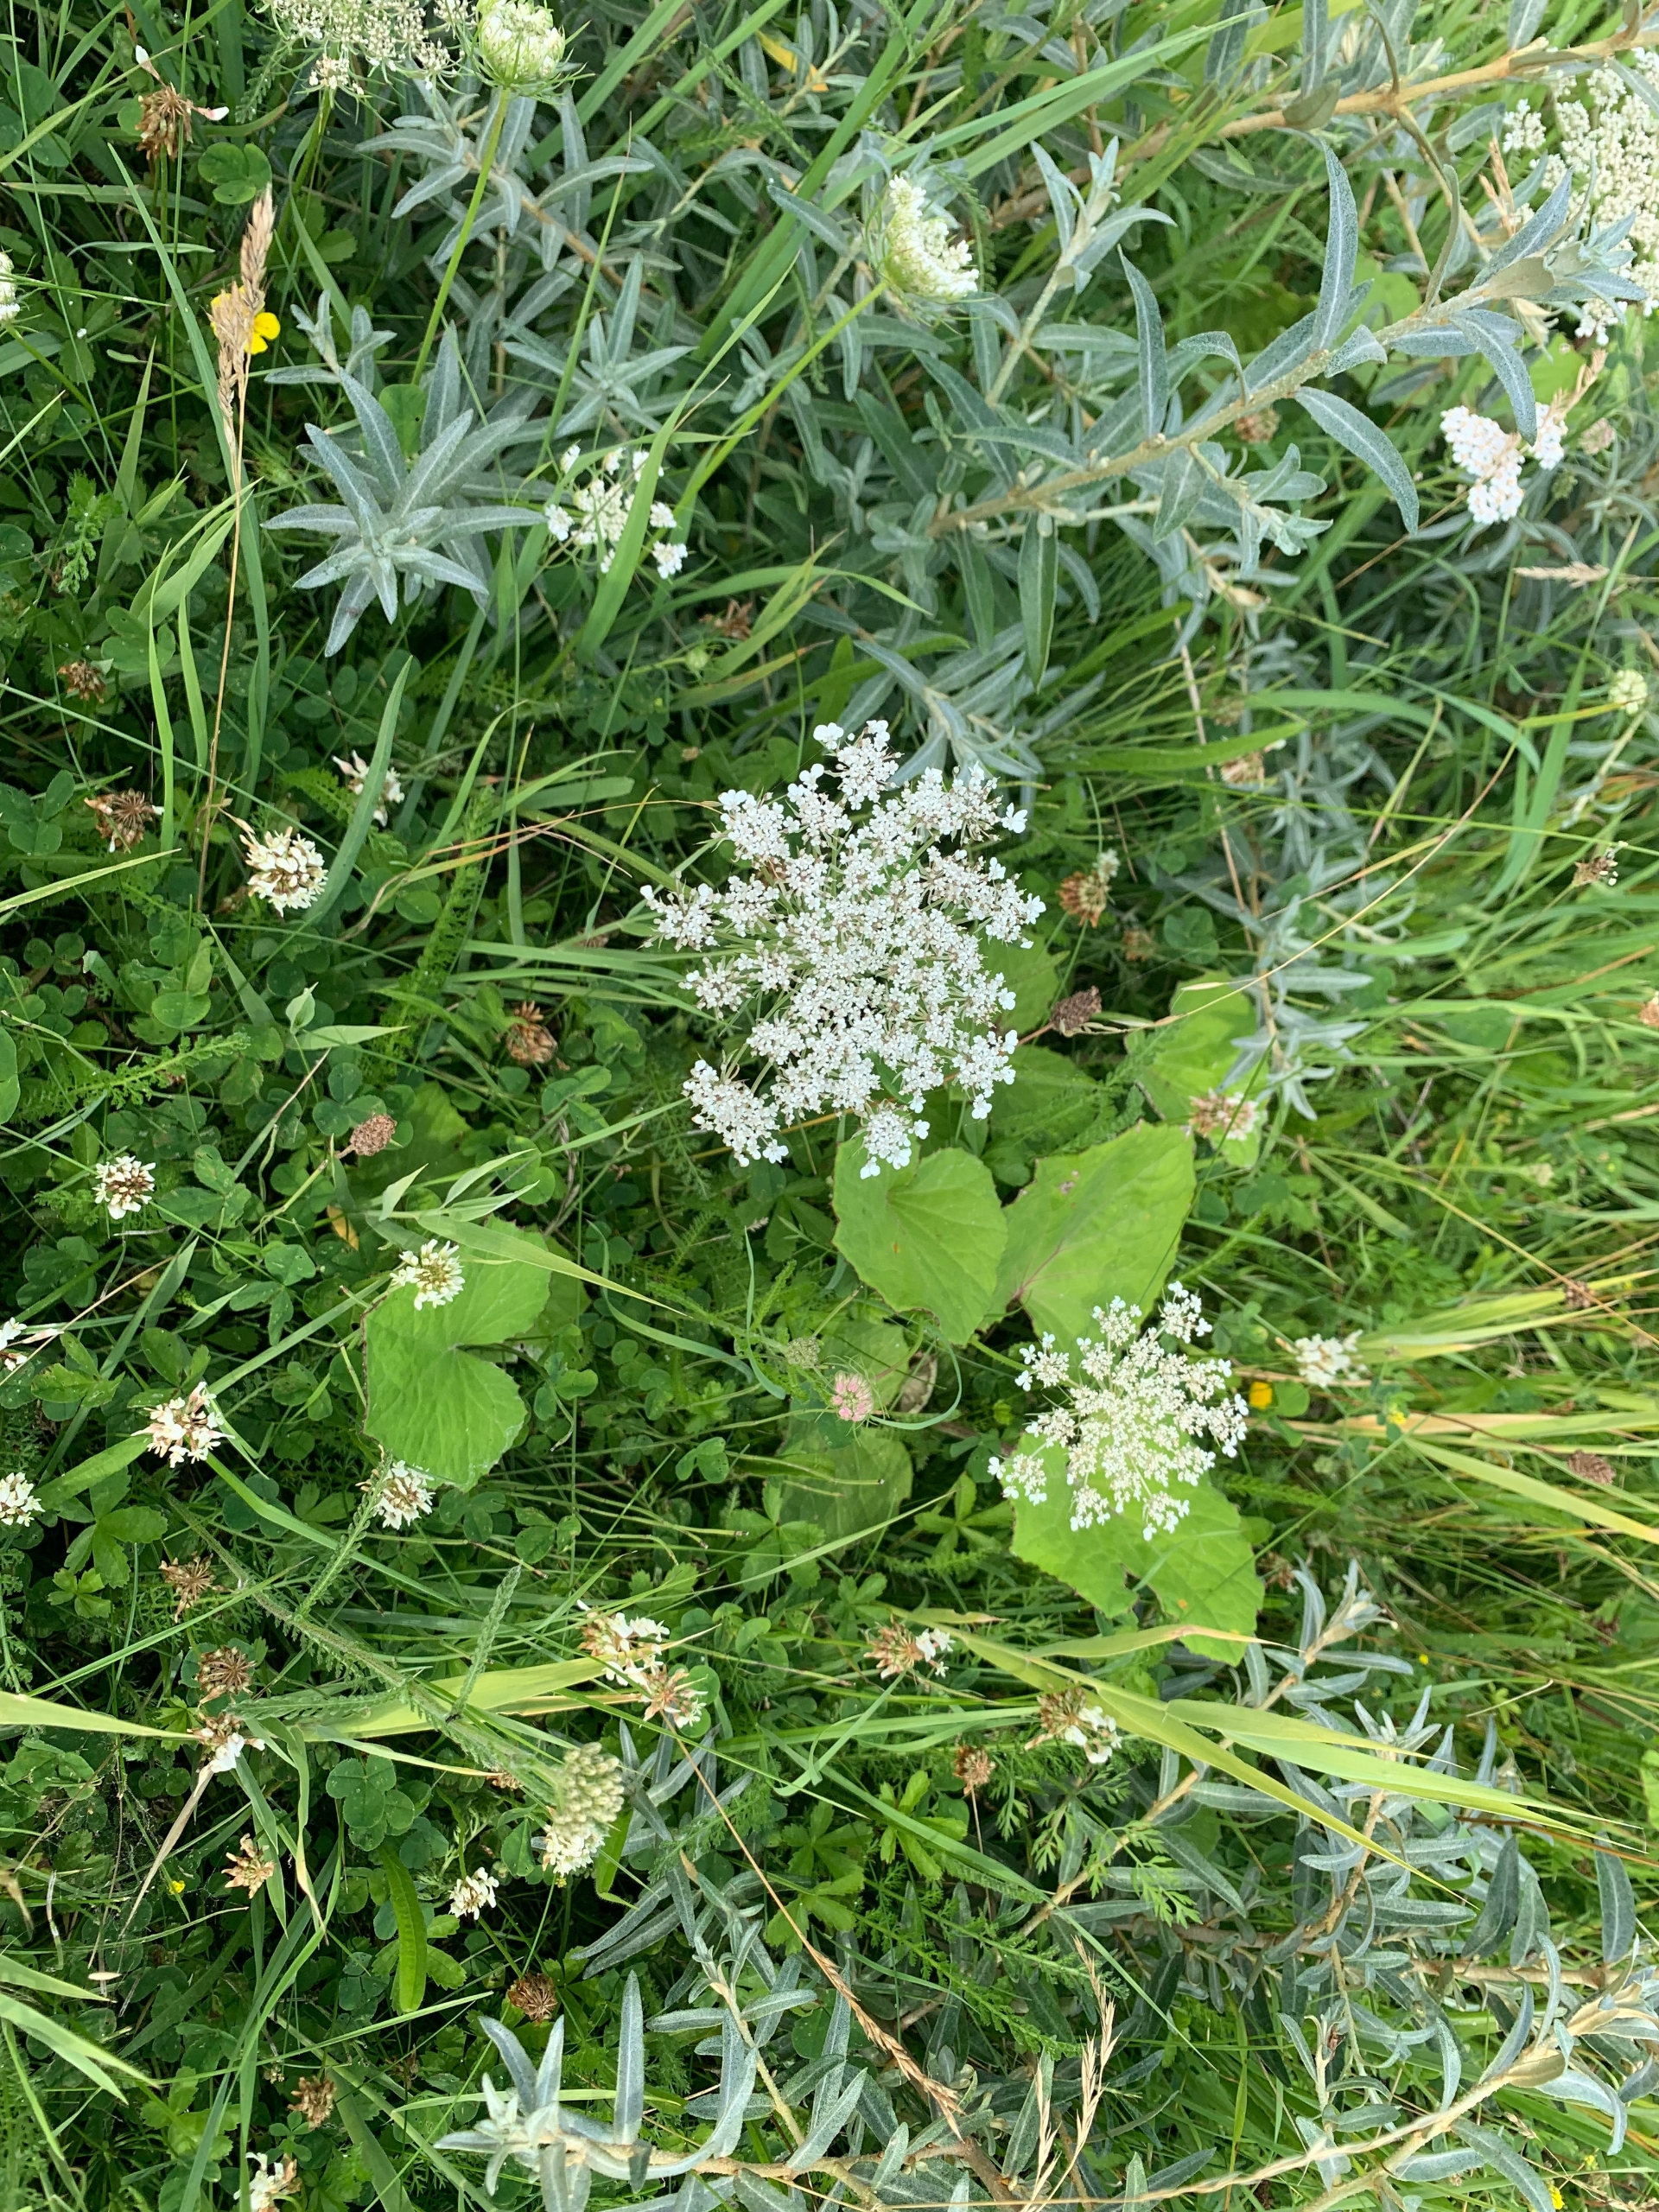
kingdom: Plantae
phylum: Tracheophyta
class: Magnoliopsida
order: Apiales
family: Apiaceae
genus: Daucus
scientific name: Daucus carota
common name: Gulerod
